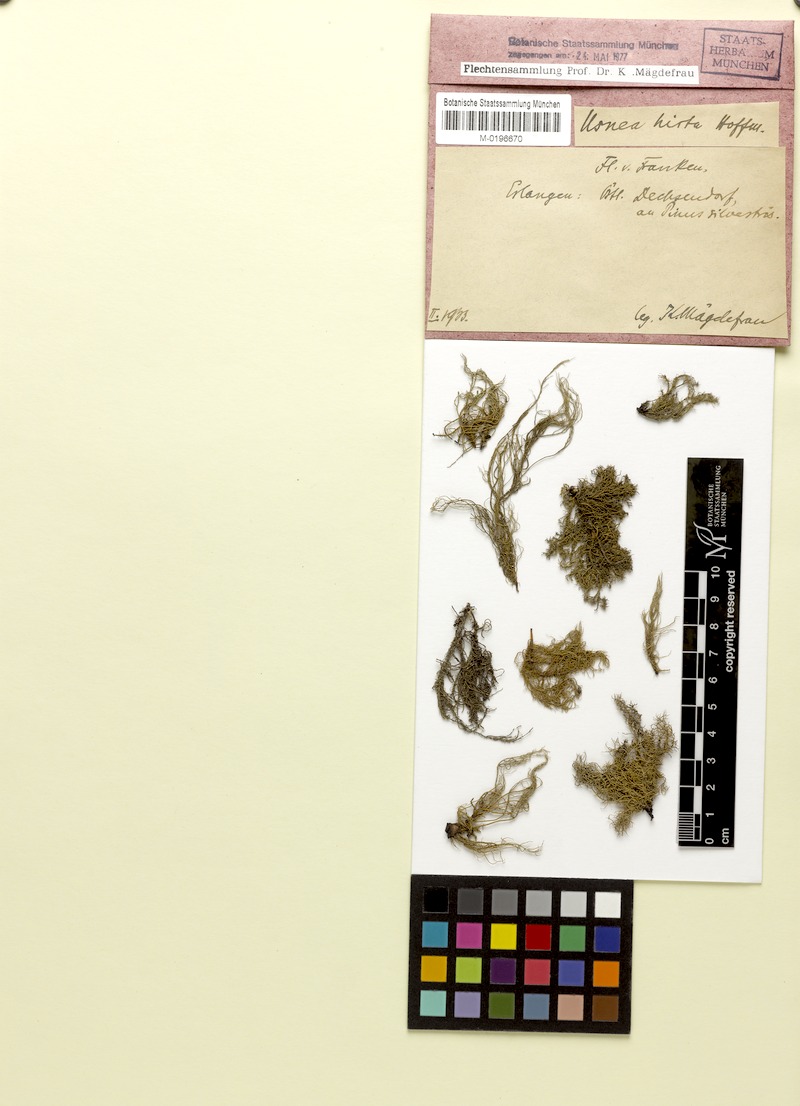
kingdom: Fungi
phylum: Ascomycota
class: Lecanoromycetes
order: Lecanorales
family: Parmeliaceae
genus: Usnea
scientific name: Usnea hirta
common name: Bristly beard lichen
